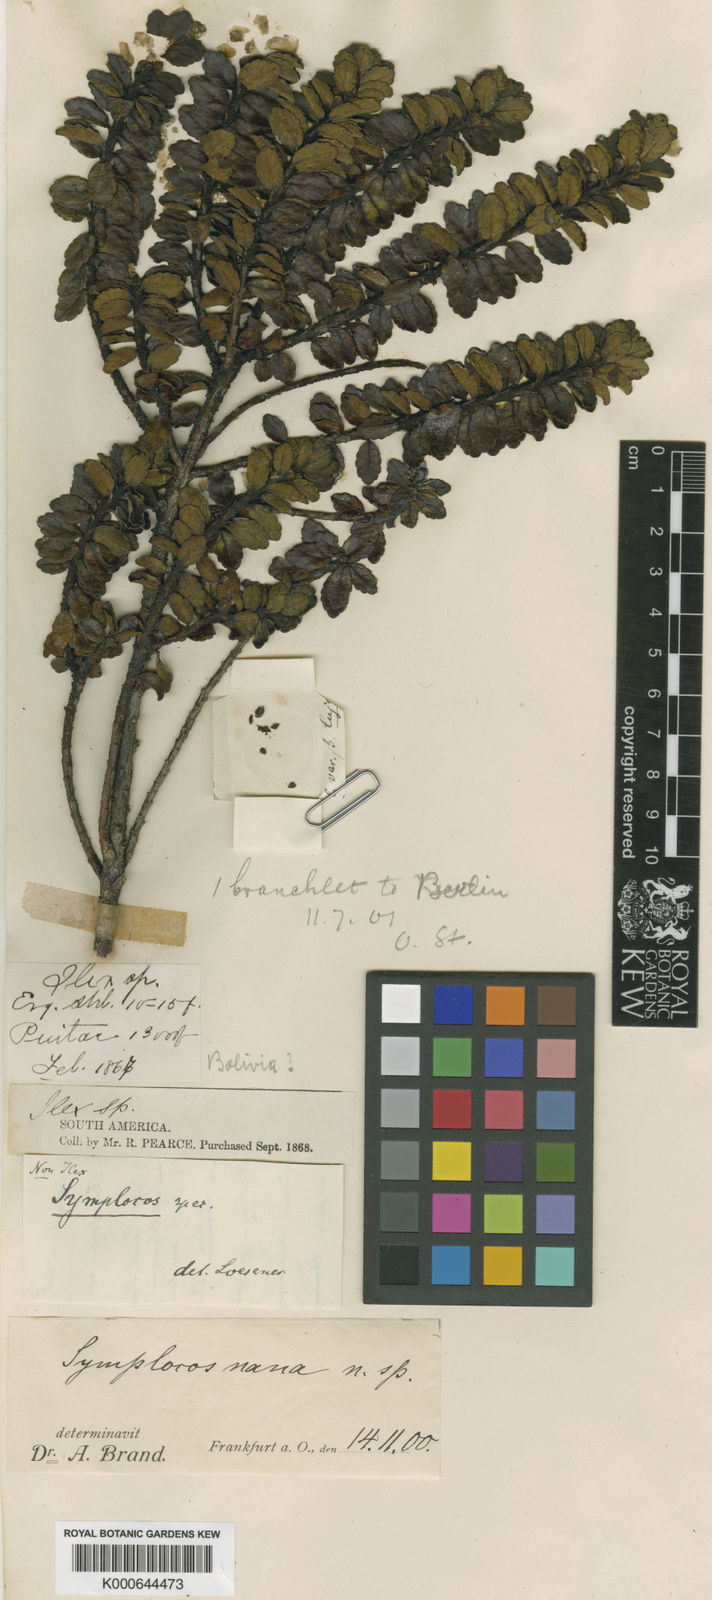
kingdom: Plantae
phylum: Tracheophyta
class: Magnoliopsida
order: Ericales
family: Symplocaceae
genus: Symplocos
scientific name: Symplocos nana
